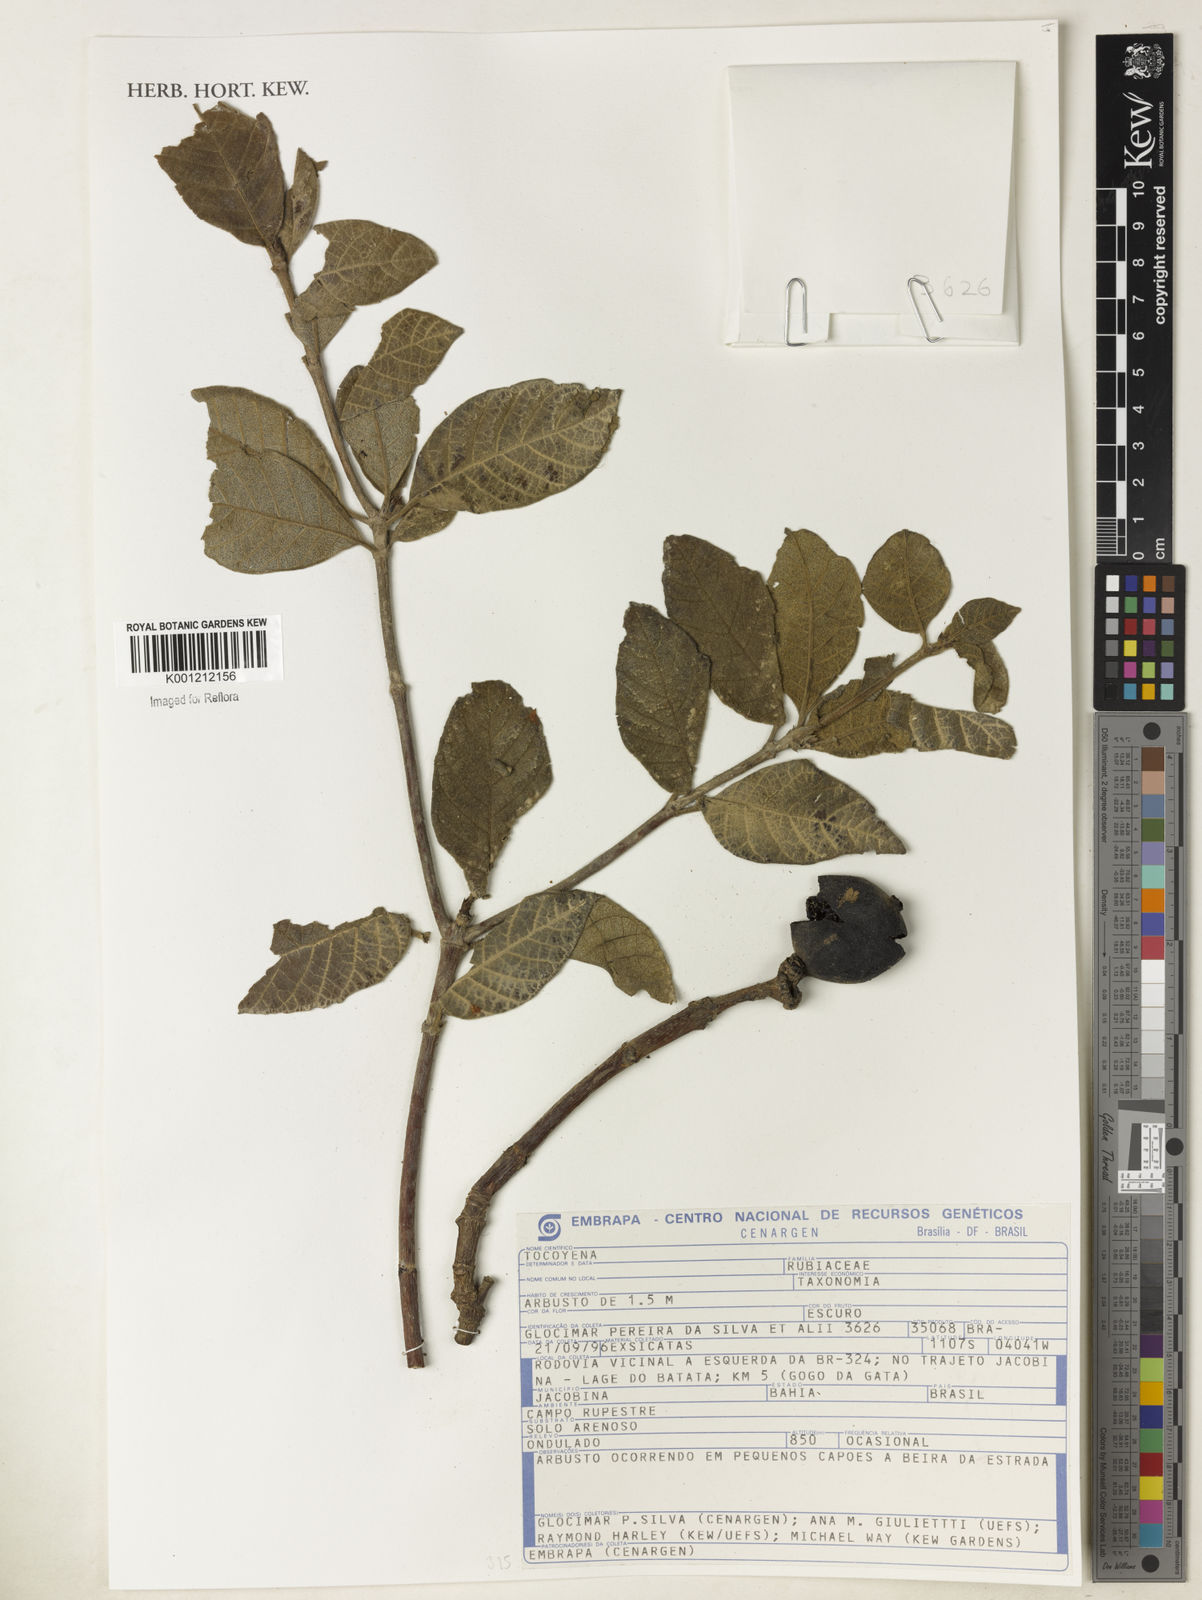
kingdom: Plantae
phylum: Tracheophyta
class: Magnoliopsida
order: Gentianales
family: Rubiaceae
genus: Tocoyena
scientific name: Tocoyena
